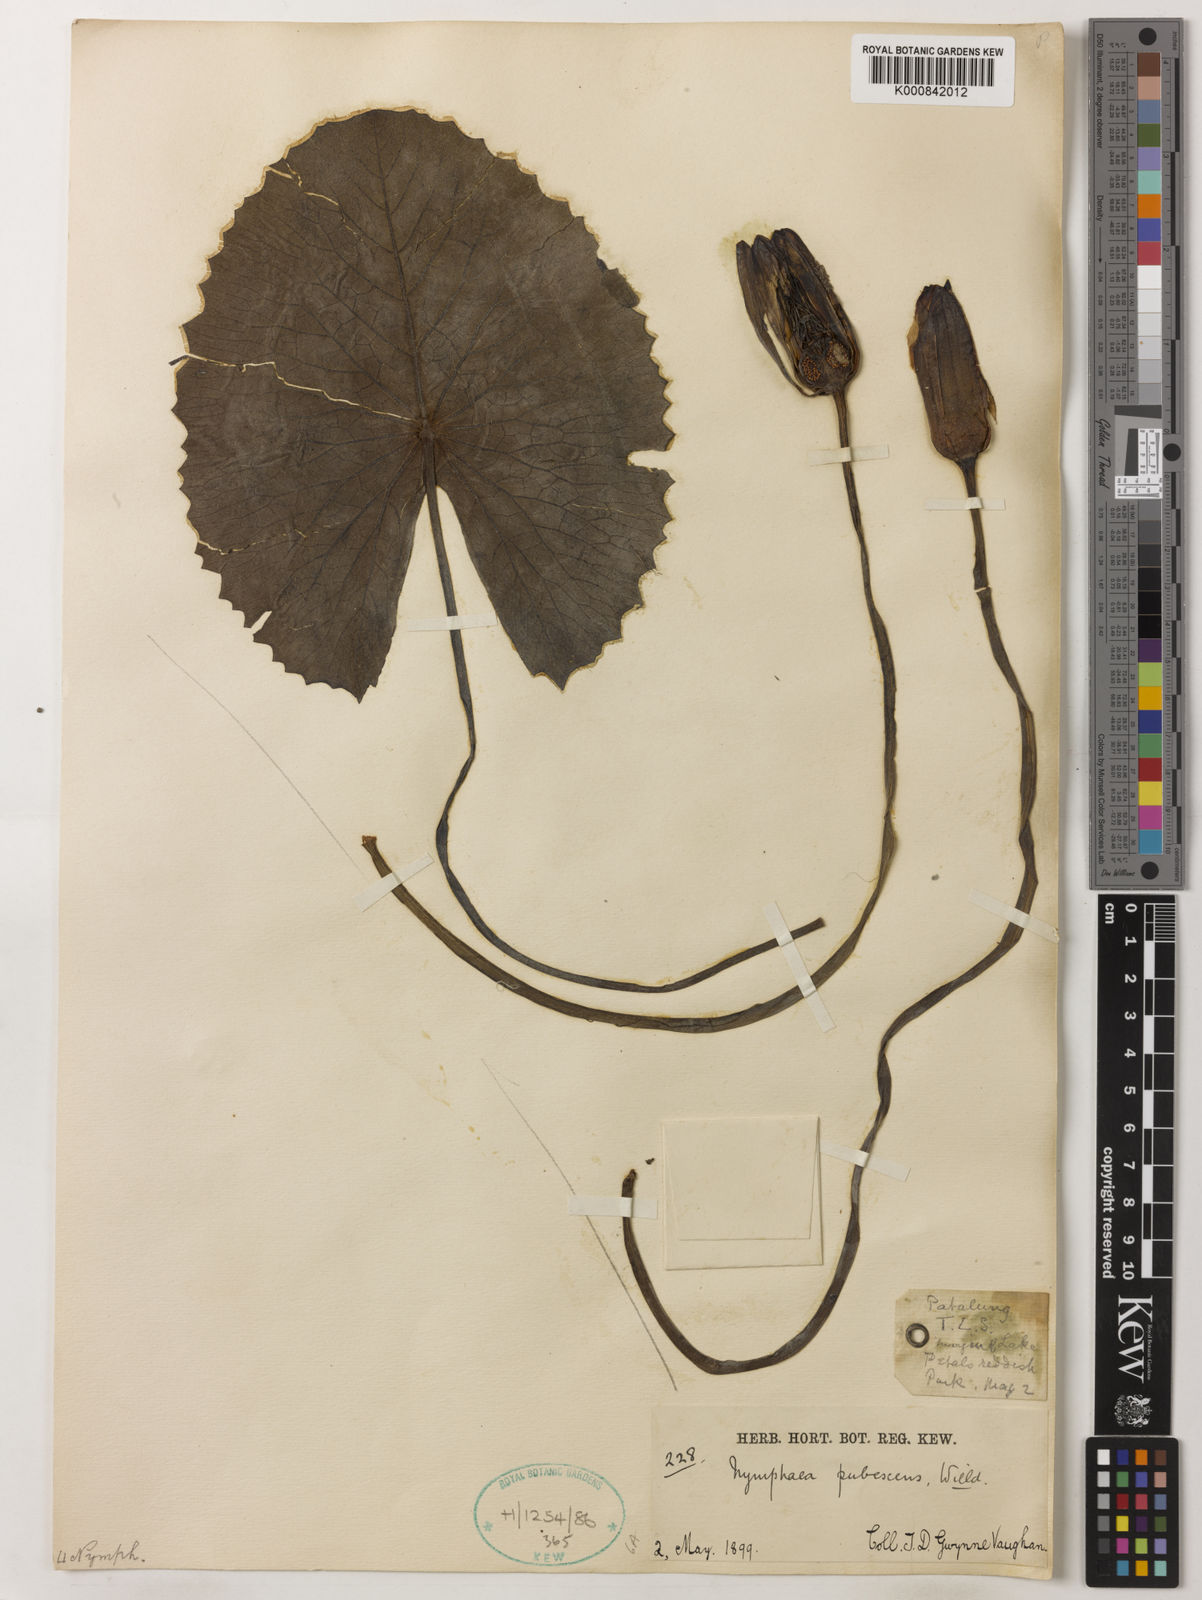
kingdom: Plantae
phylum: Tracheophyta
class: Magnoliopsida
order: Nymphaeales
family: Nymphaeaceae
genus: Nymphaea
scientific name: Nymphaea pubescens
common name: Hairy water lily
